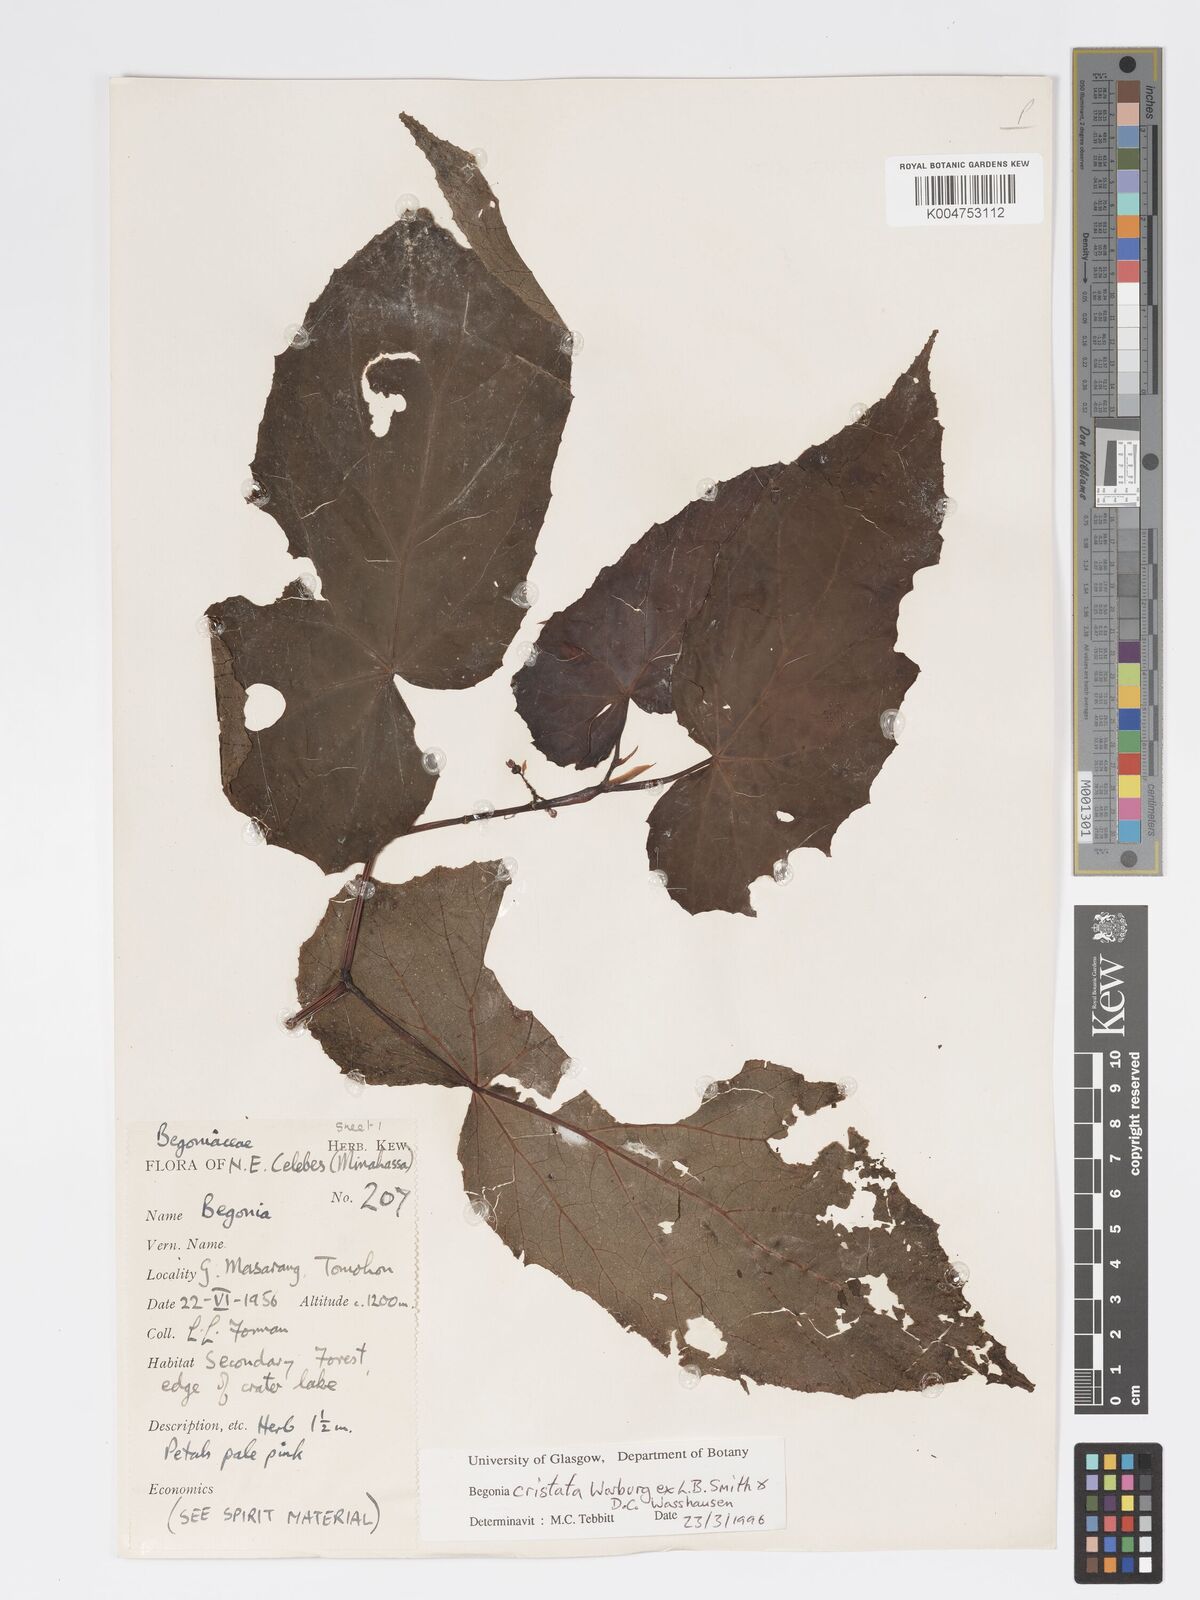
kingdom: Plantae
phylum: Tracheophyta
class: Magnoliopsida
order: Cucurbitales
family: Begoniaceae
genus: Begonia
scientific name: Begonia
